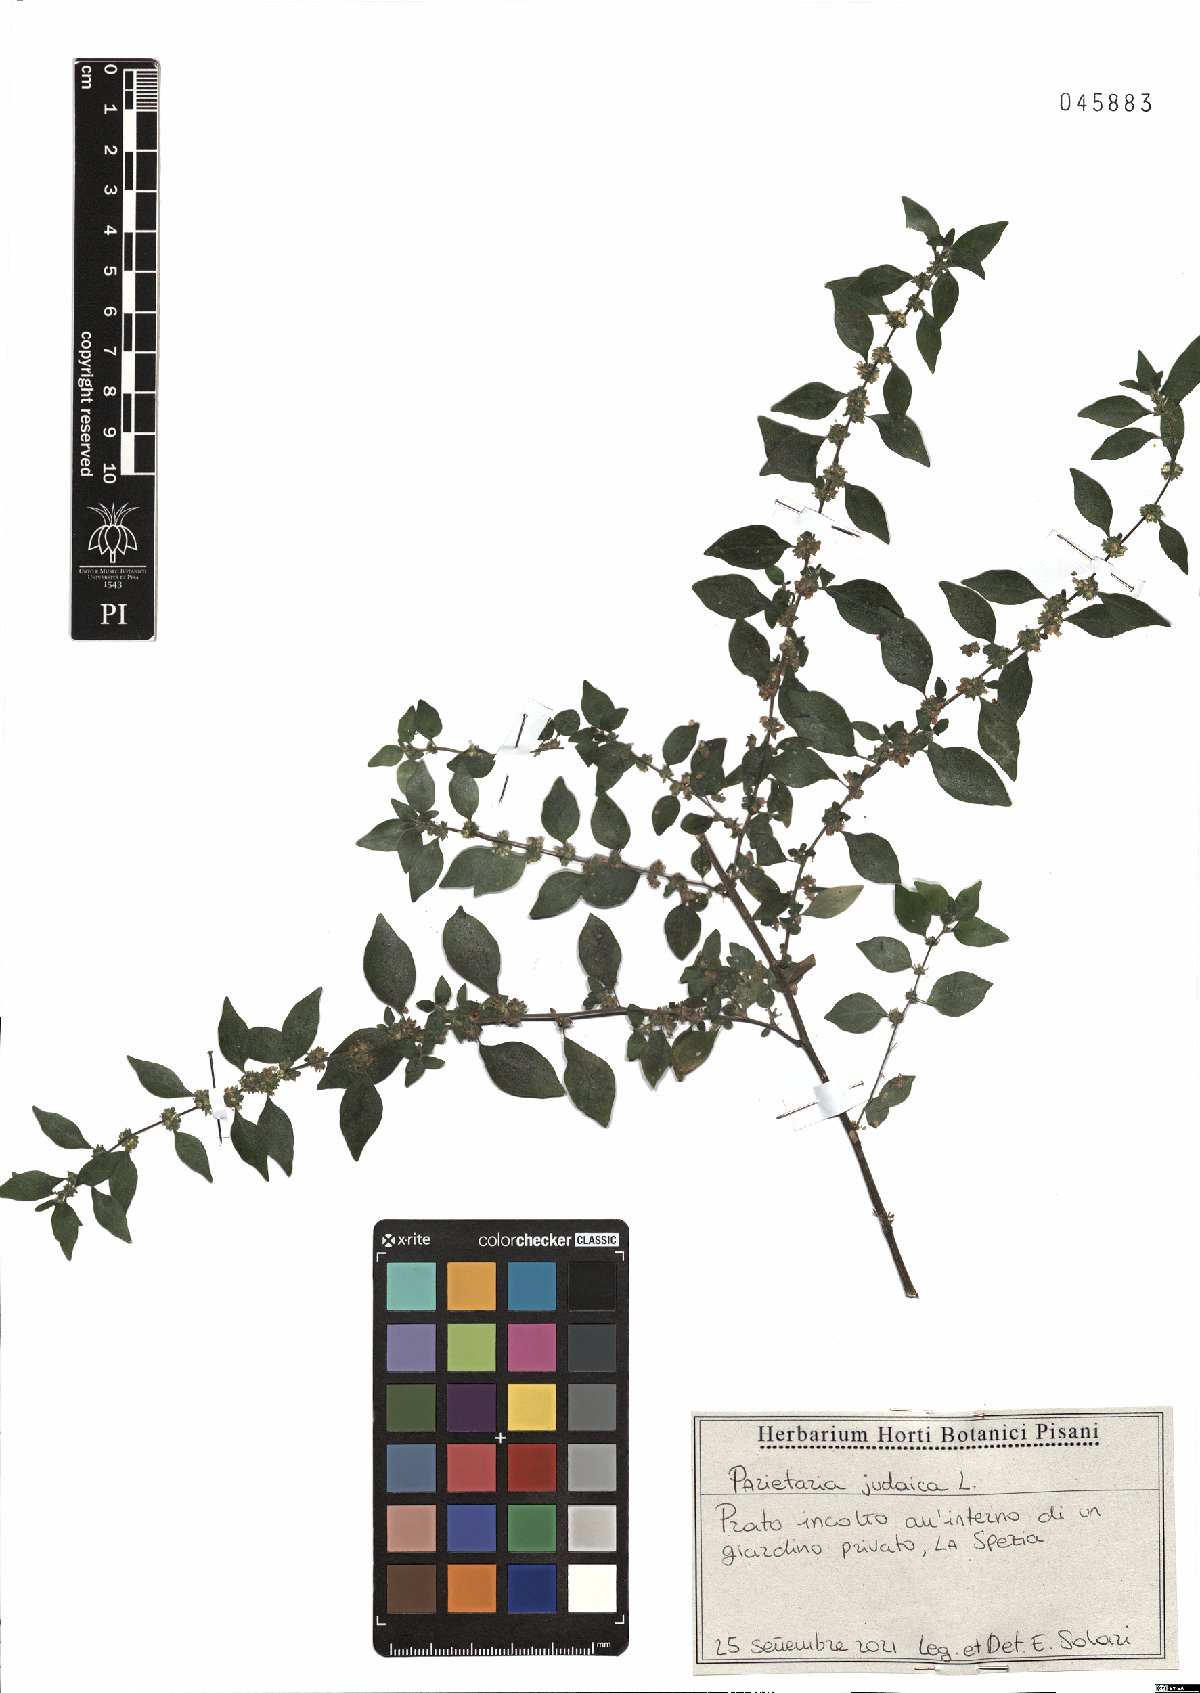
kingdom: Plantae
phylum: Tracheophyta
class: Magnoliopsida
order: Rosales
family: Urticaceae
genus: Parietaria
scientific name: Parietaria judaica
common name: Pellitory-of-the-wall
